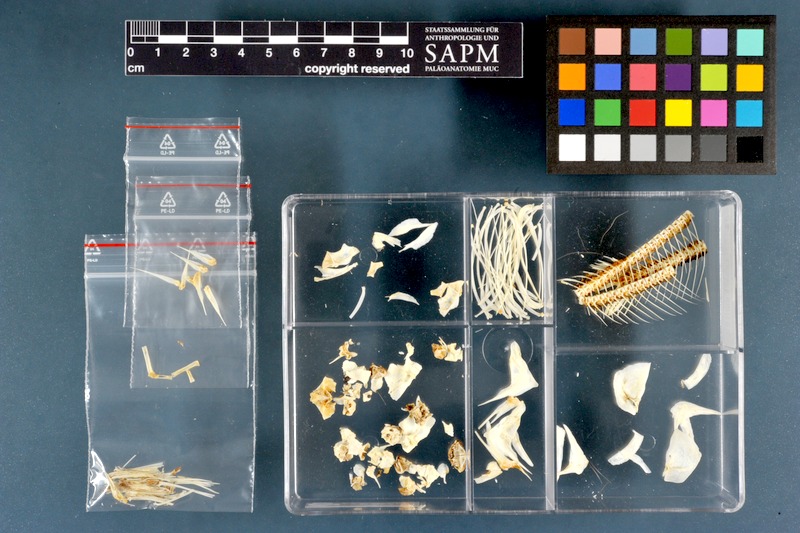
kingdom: Animalia
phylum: Chordata
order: Characiformes
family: Distichodontidae
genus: Distichodus
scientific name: Distichodus nefasch
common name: Nile distichodus
